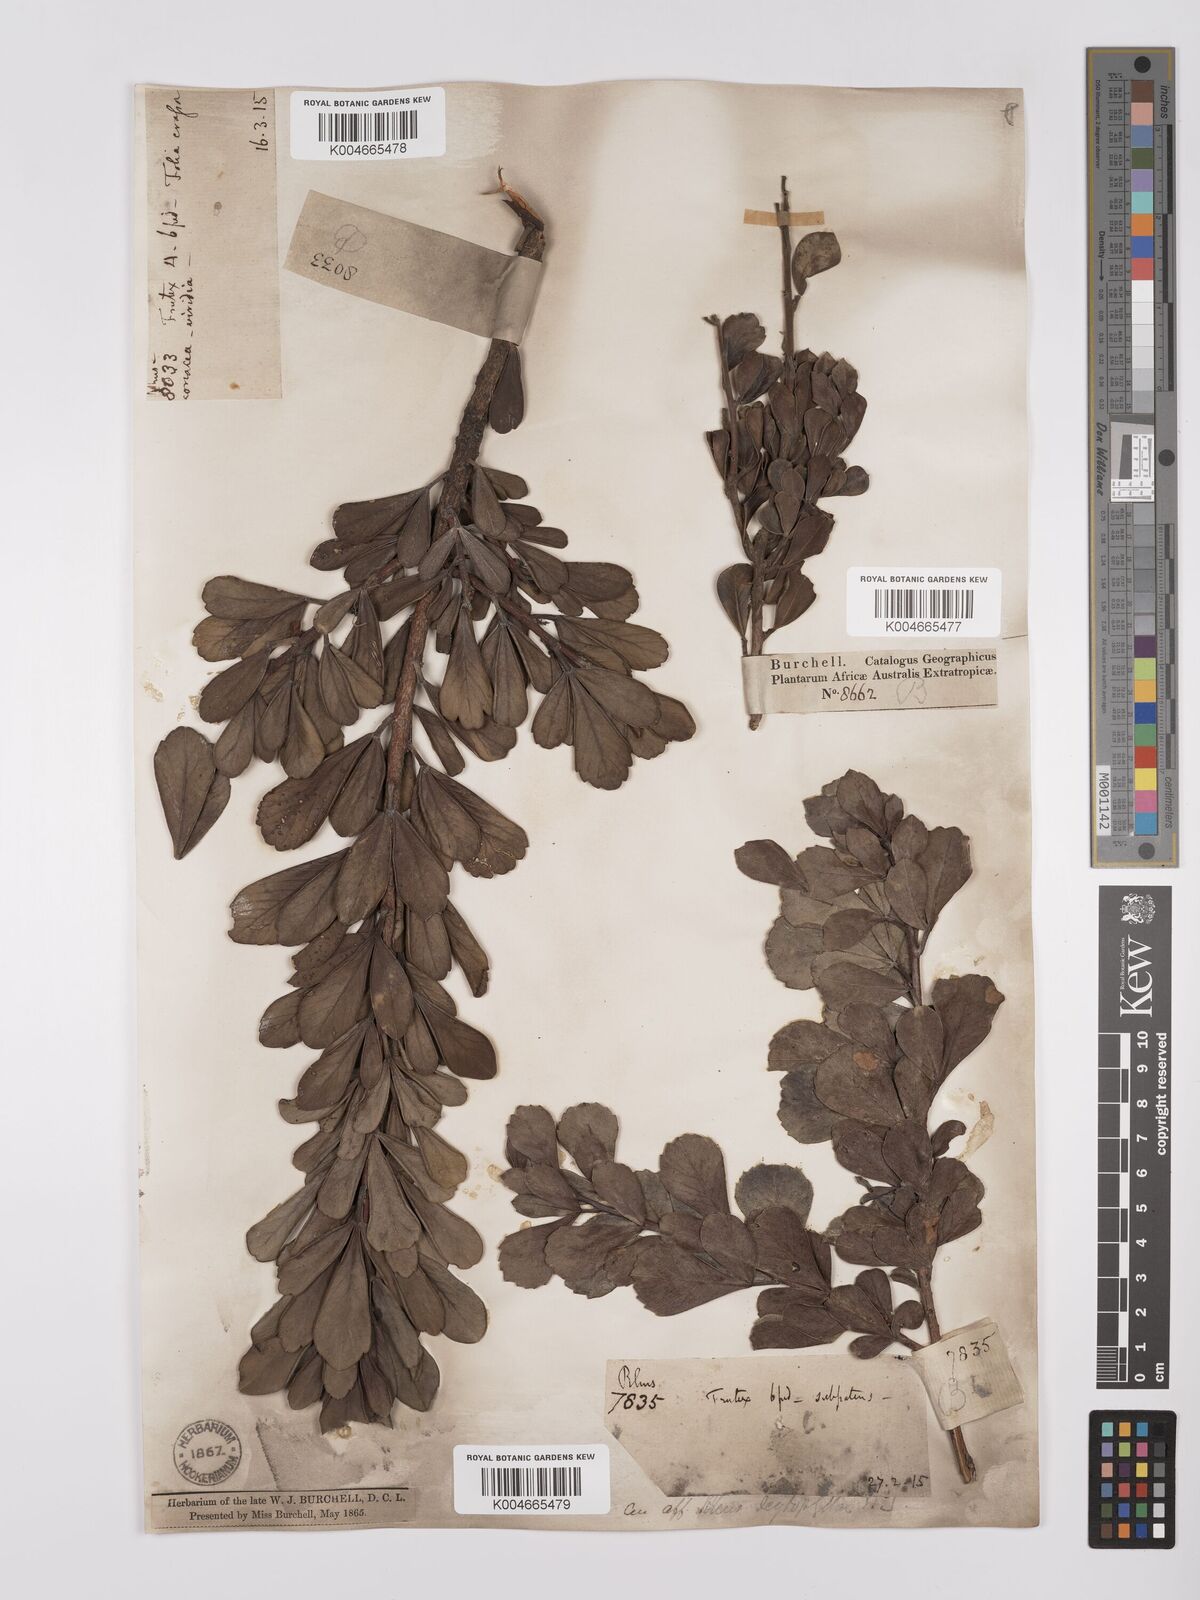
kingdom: Plantae
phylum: Tracheophyta
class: Magnoliopsida
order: Sapindales
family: Anacardiaceae
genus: Searsia
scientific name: Searsia scytophylla
